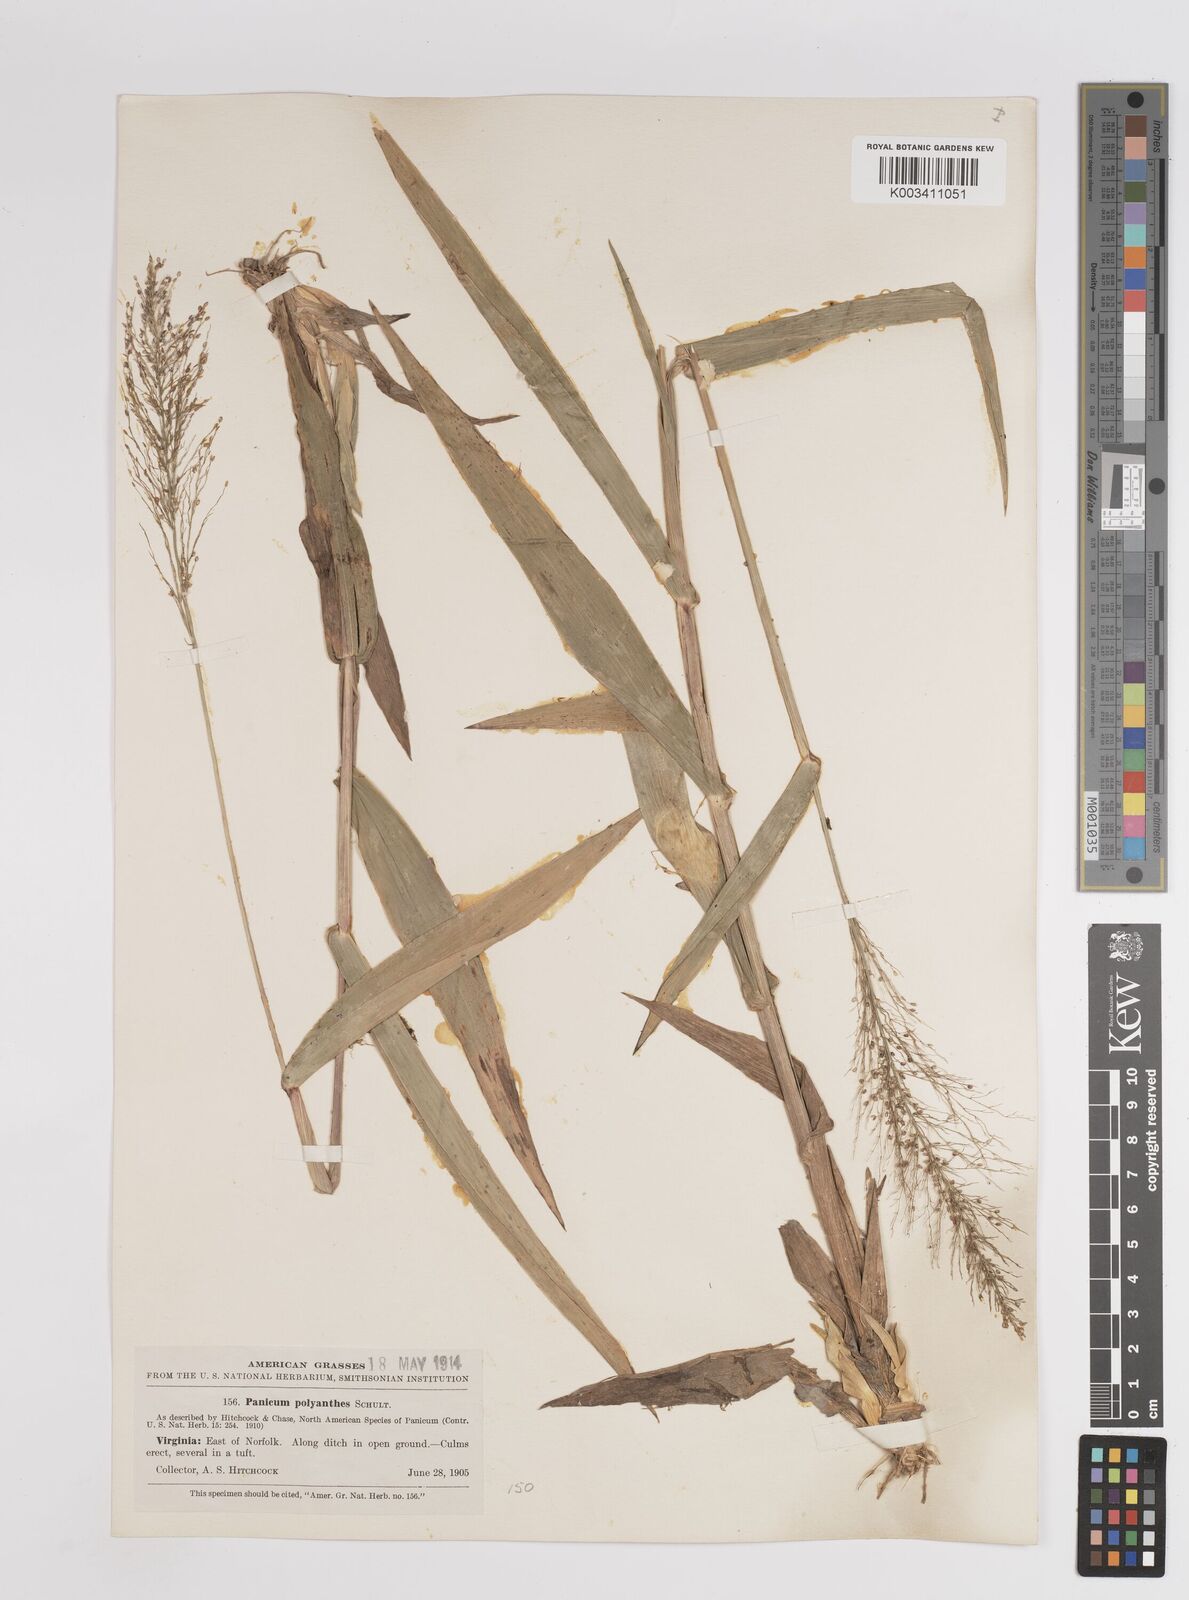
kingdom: Plantae
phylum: Tracheophyta
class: Liliopsida
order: Poales
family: Poaceae
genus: Dichanthelium
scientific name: Dichanthelium polyanthes
